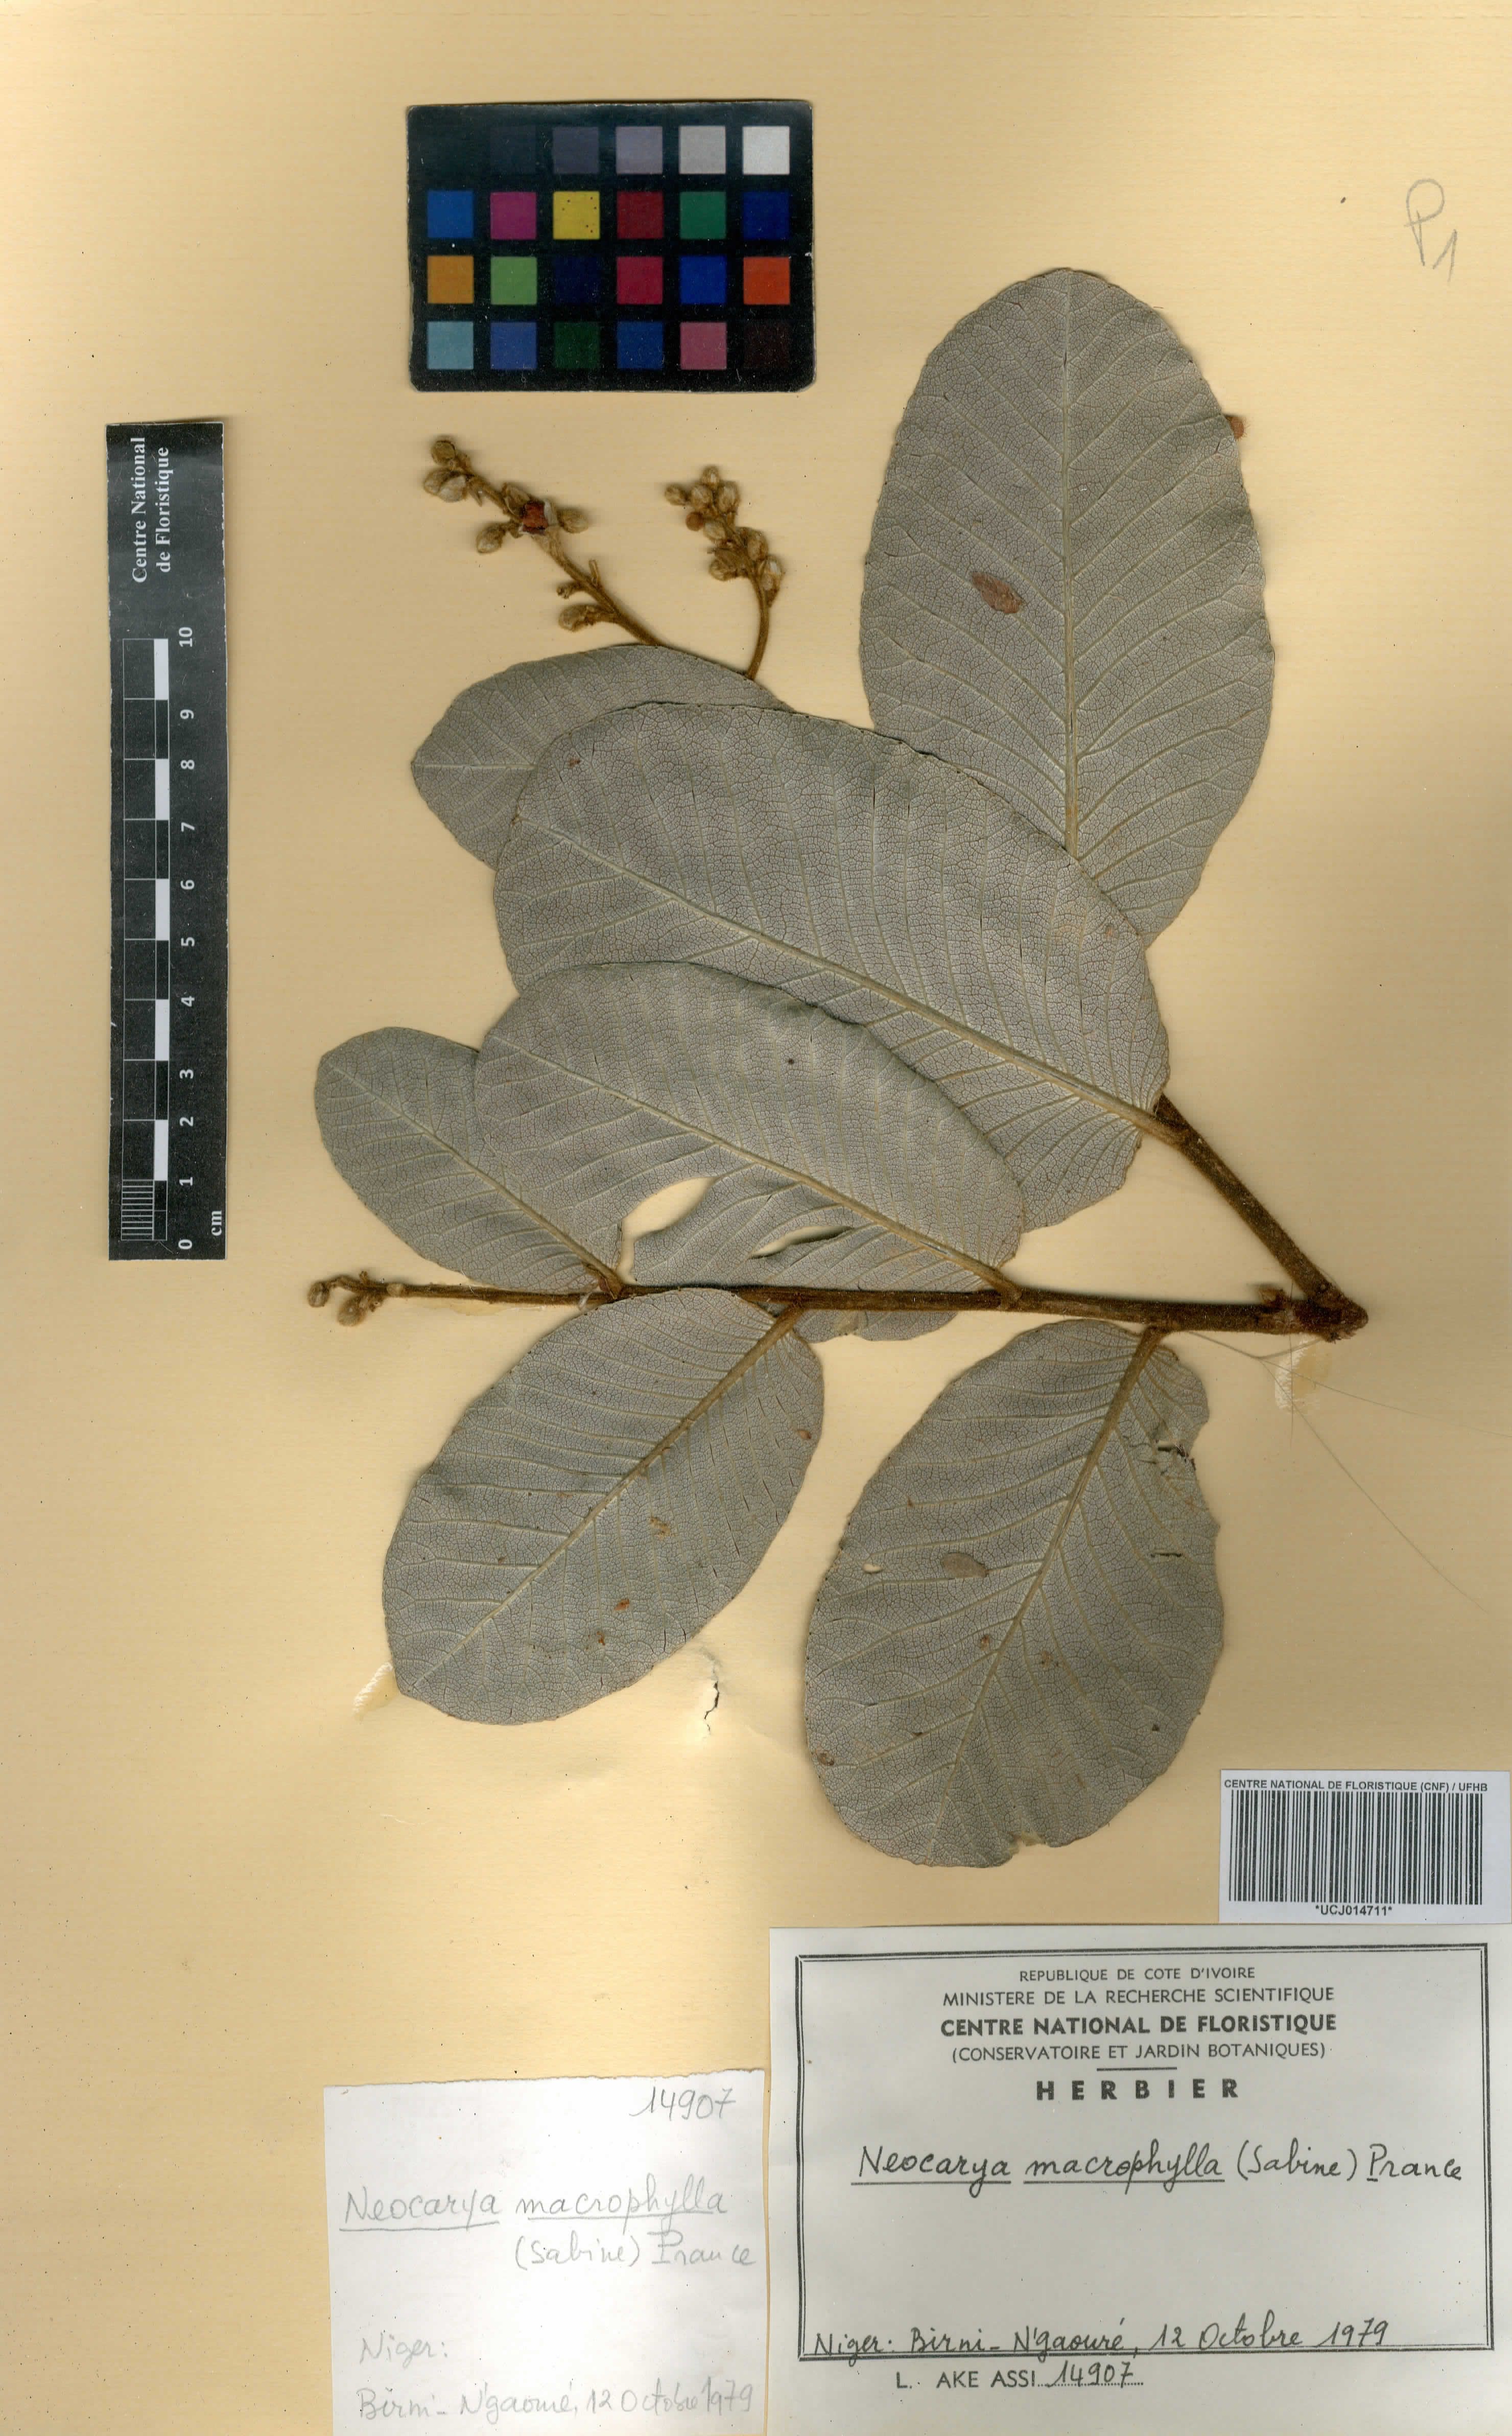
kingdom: Plantae
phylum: Tracheophyta
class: Magnoliopsida
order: Malpighiales
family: Chrysobalanaceae
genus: Neocarya
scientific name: Neocarya macrophylla
